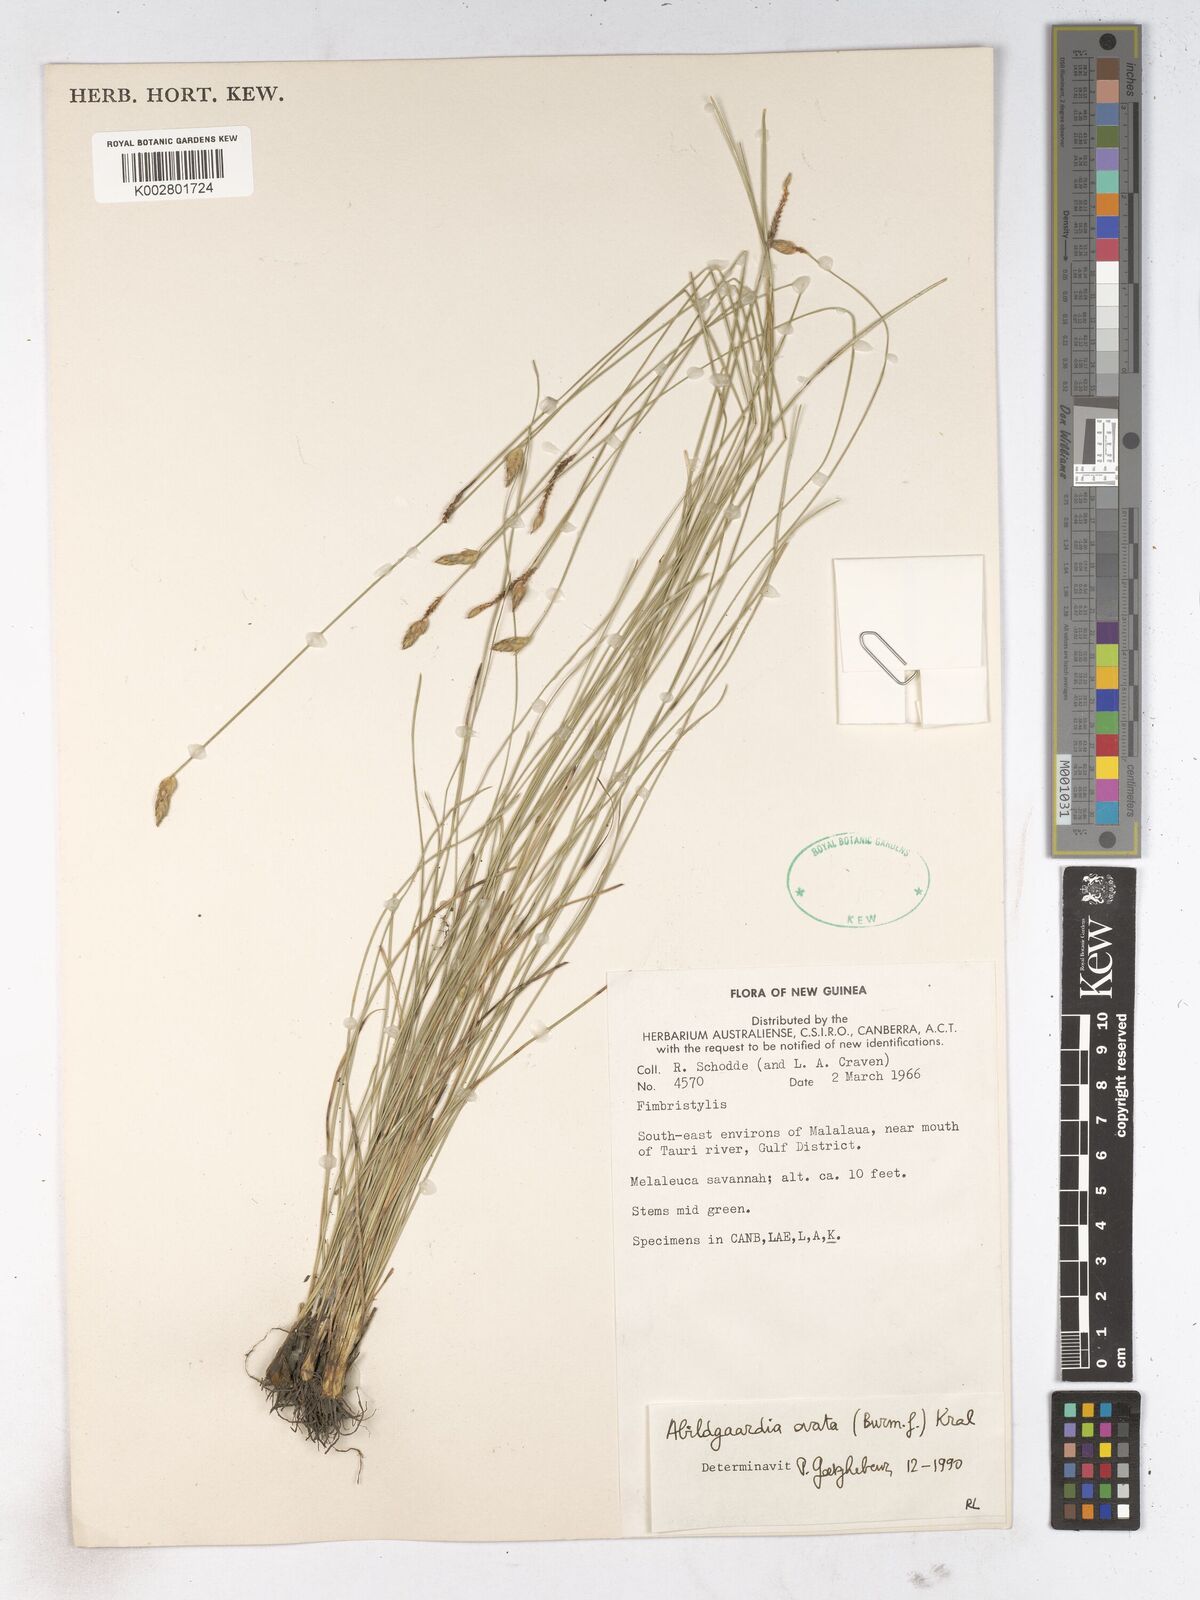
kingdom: Plantae
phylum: Tracheophyta
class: Liliopsida
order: Poales
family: Cyperaceae
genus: Abildgaardia
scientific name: Abildgaardia ovata
